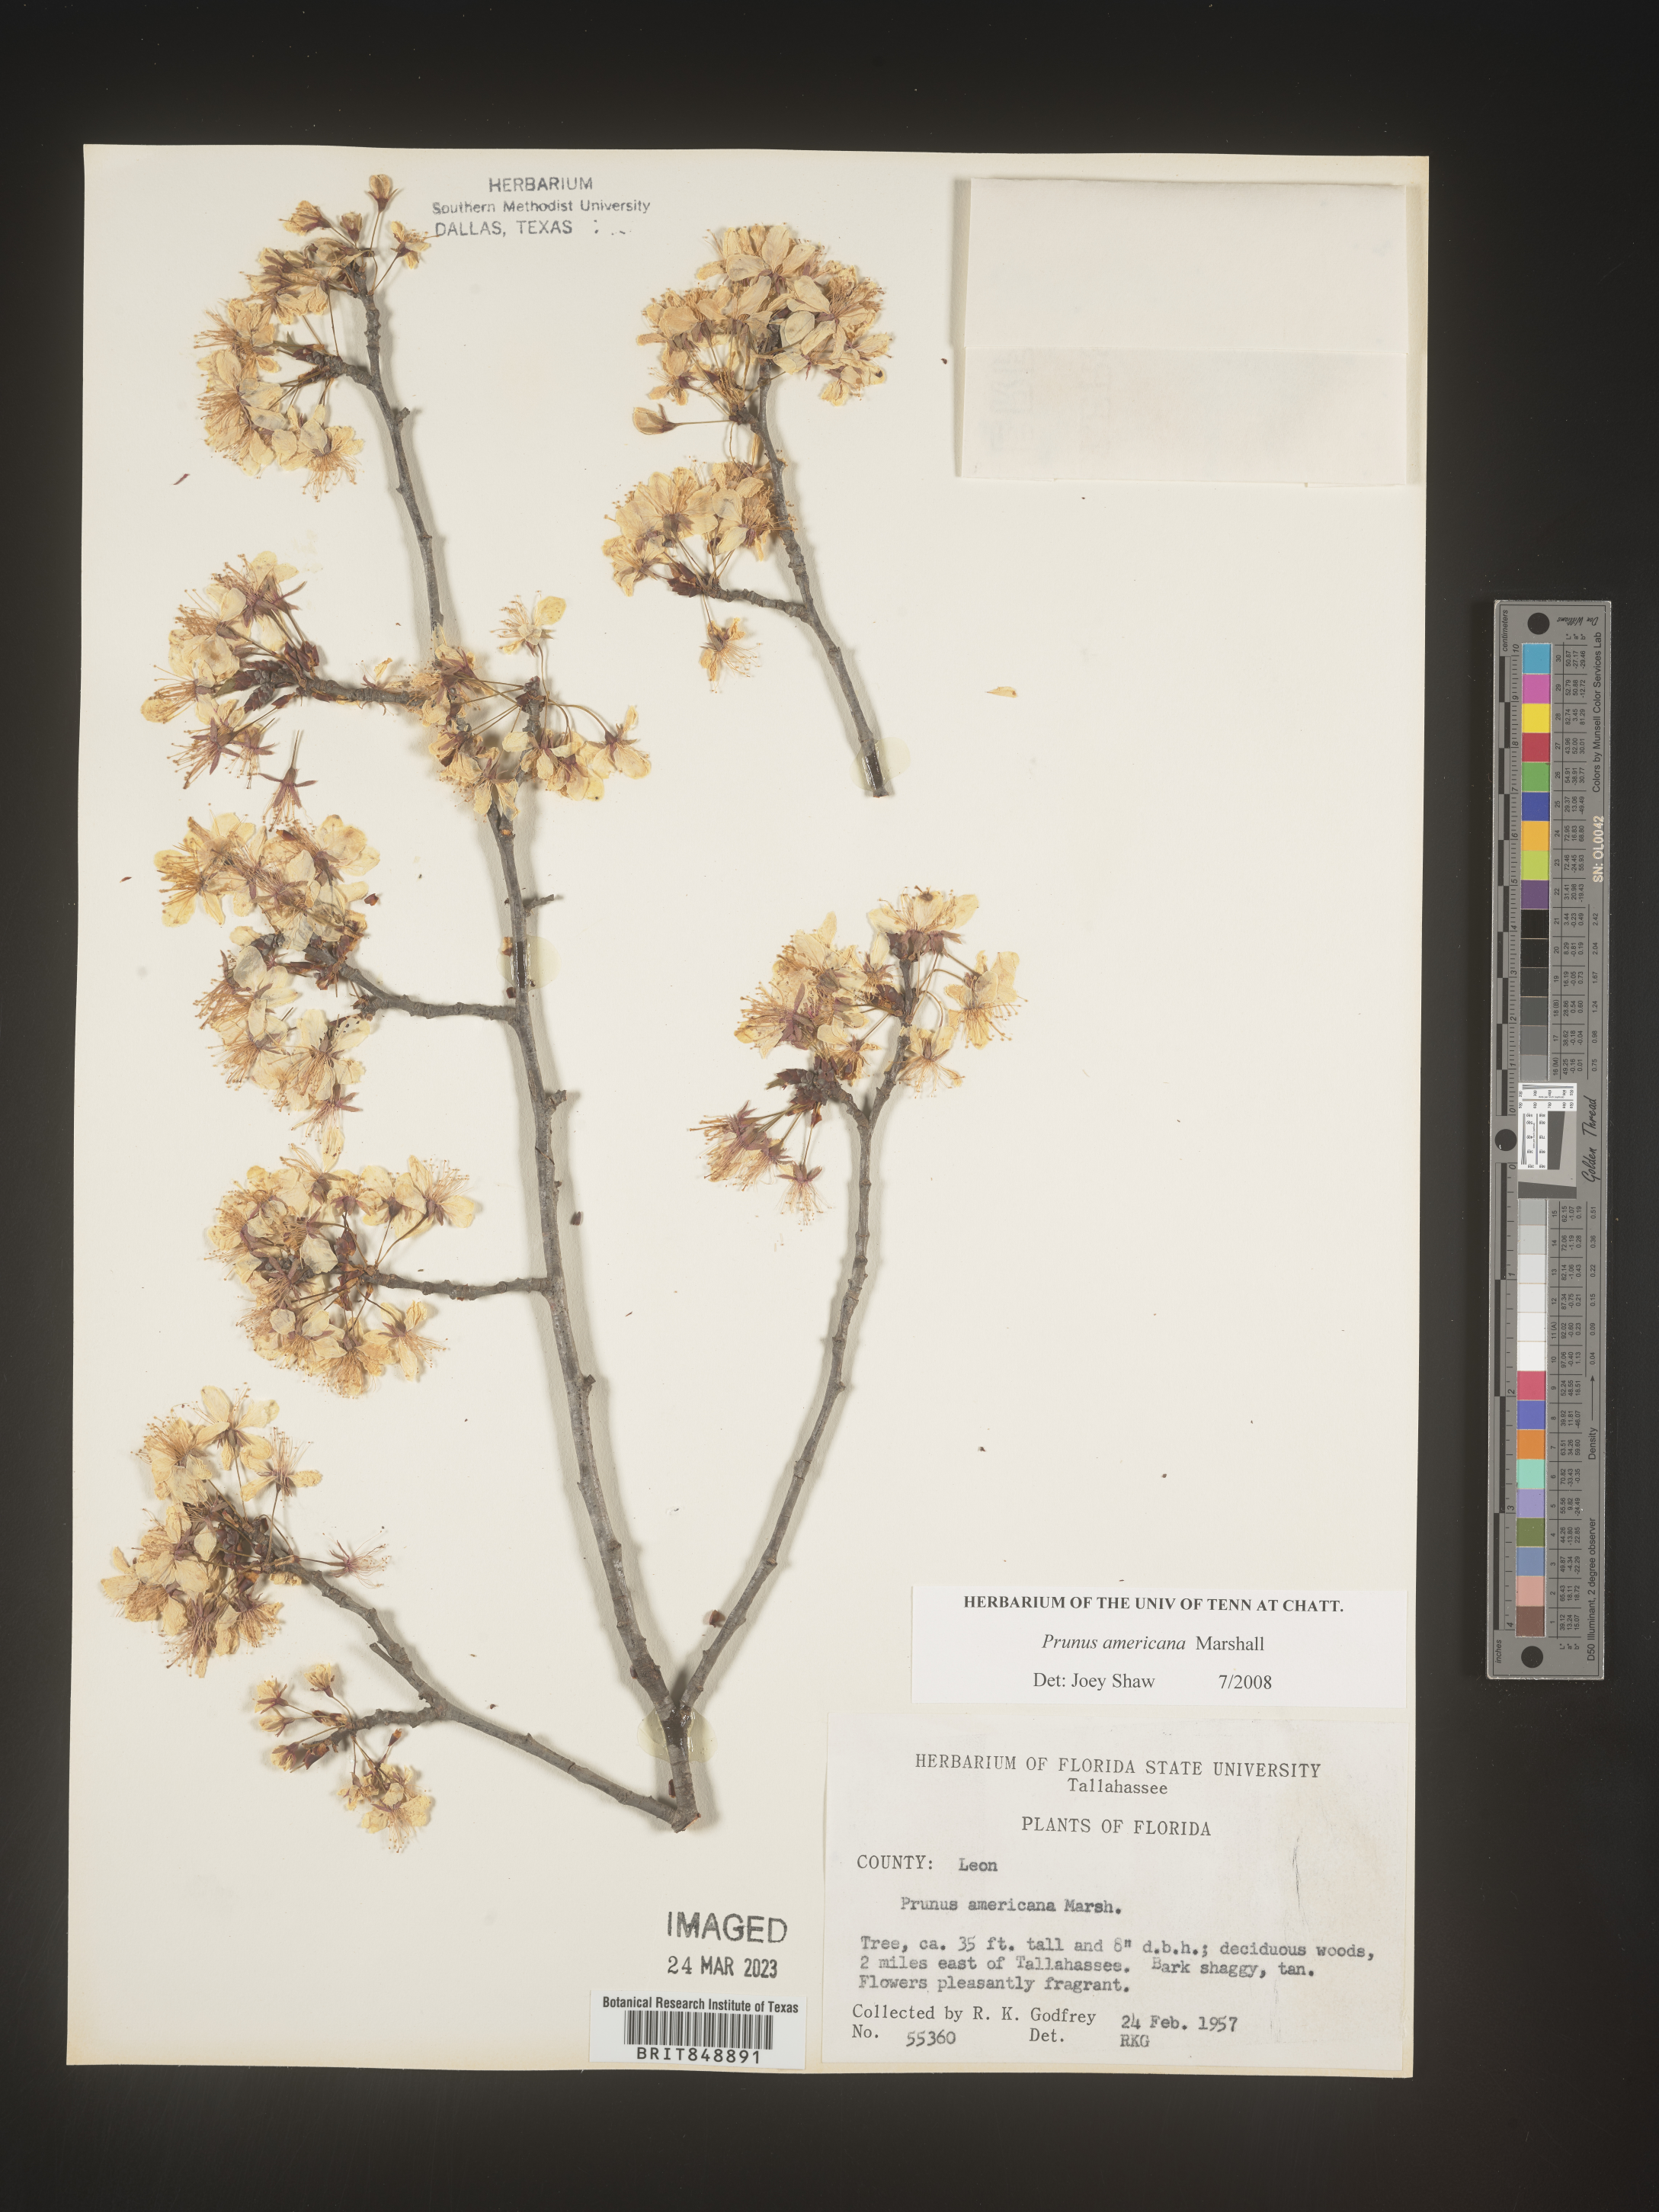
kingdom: Plantae
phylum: Tracheophyta
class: Magnoliopsida
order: Rosales
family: Rosaceae
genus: Prunus
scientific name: Prunus americana
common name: American plum
